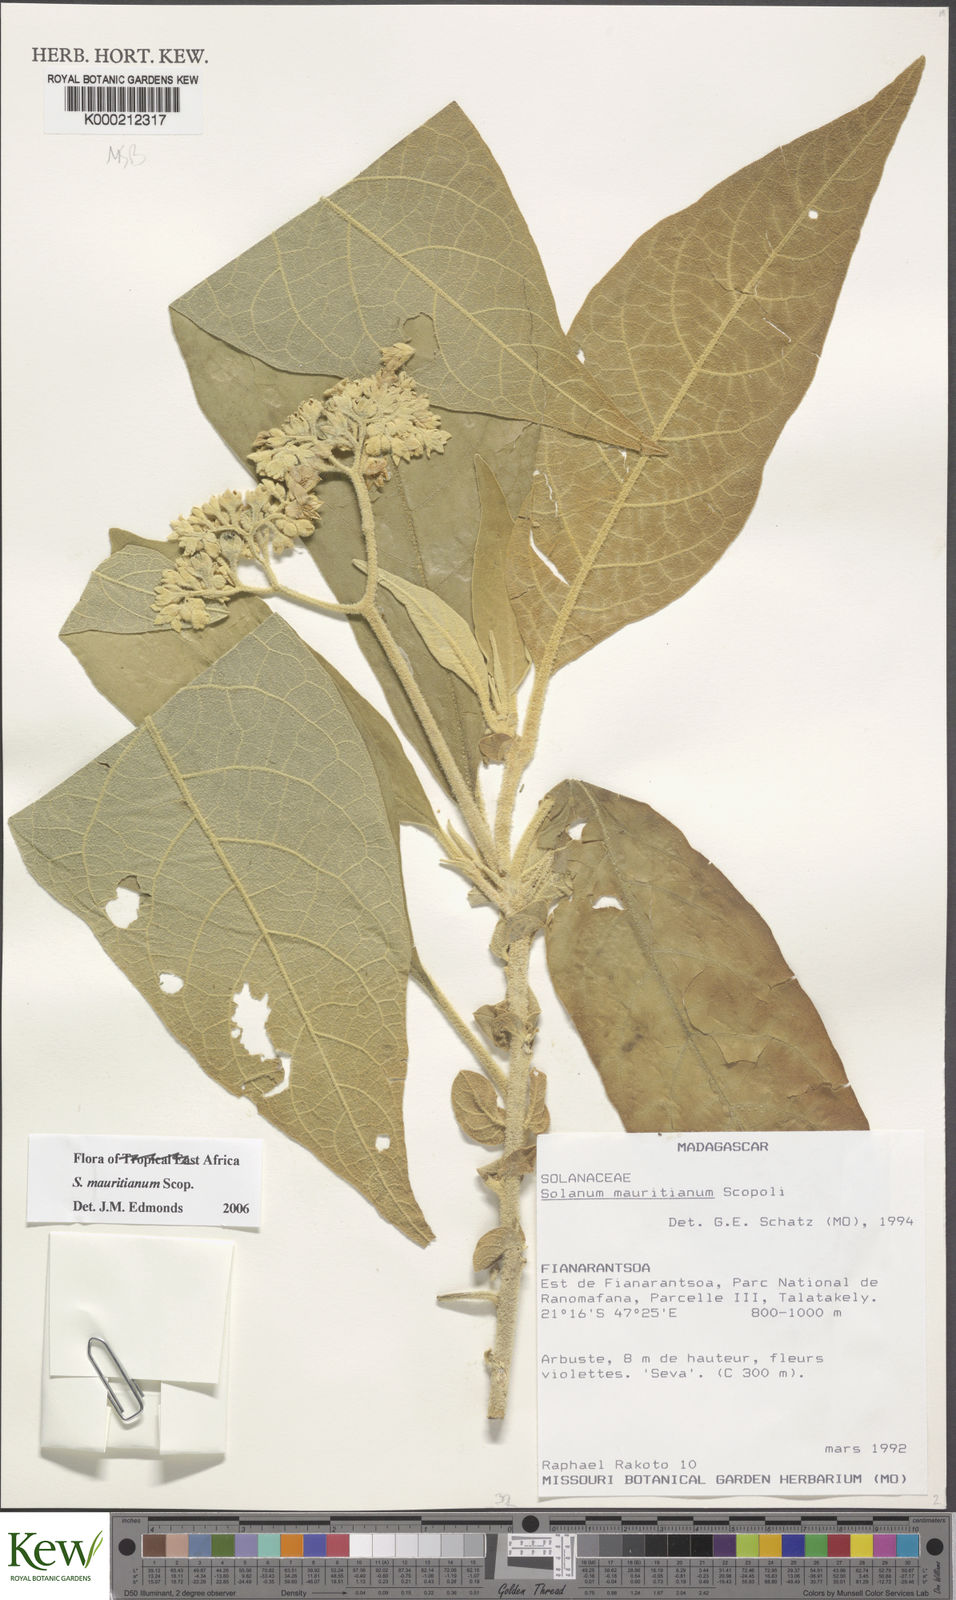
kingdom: Plantae
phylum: Tracheophyta
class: Magnoliopsida
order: Solanales
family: Solanaceae
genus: Solanum
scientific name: Solanum mauritianum
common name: Earleaf nightshade
